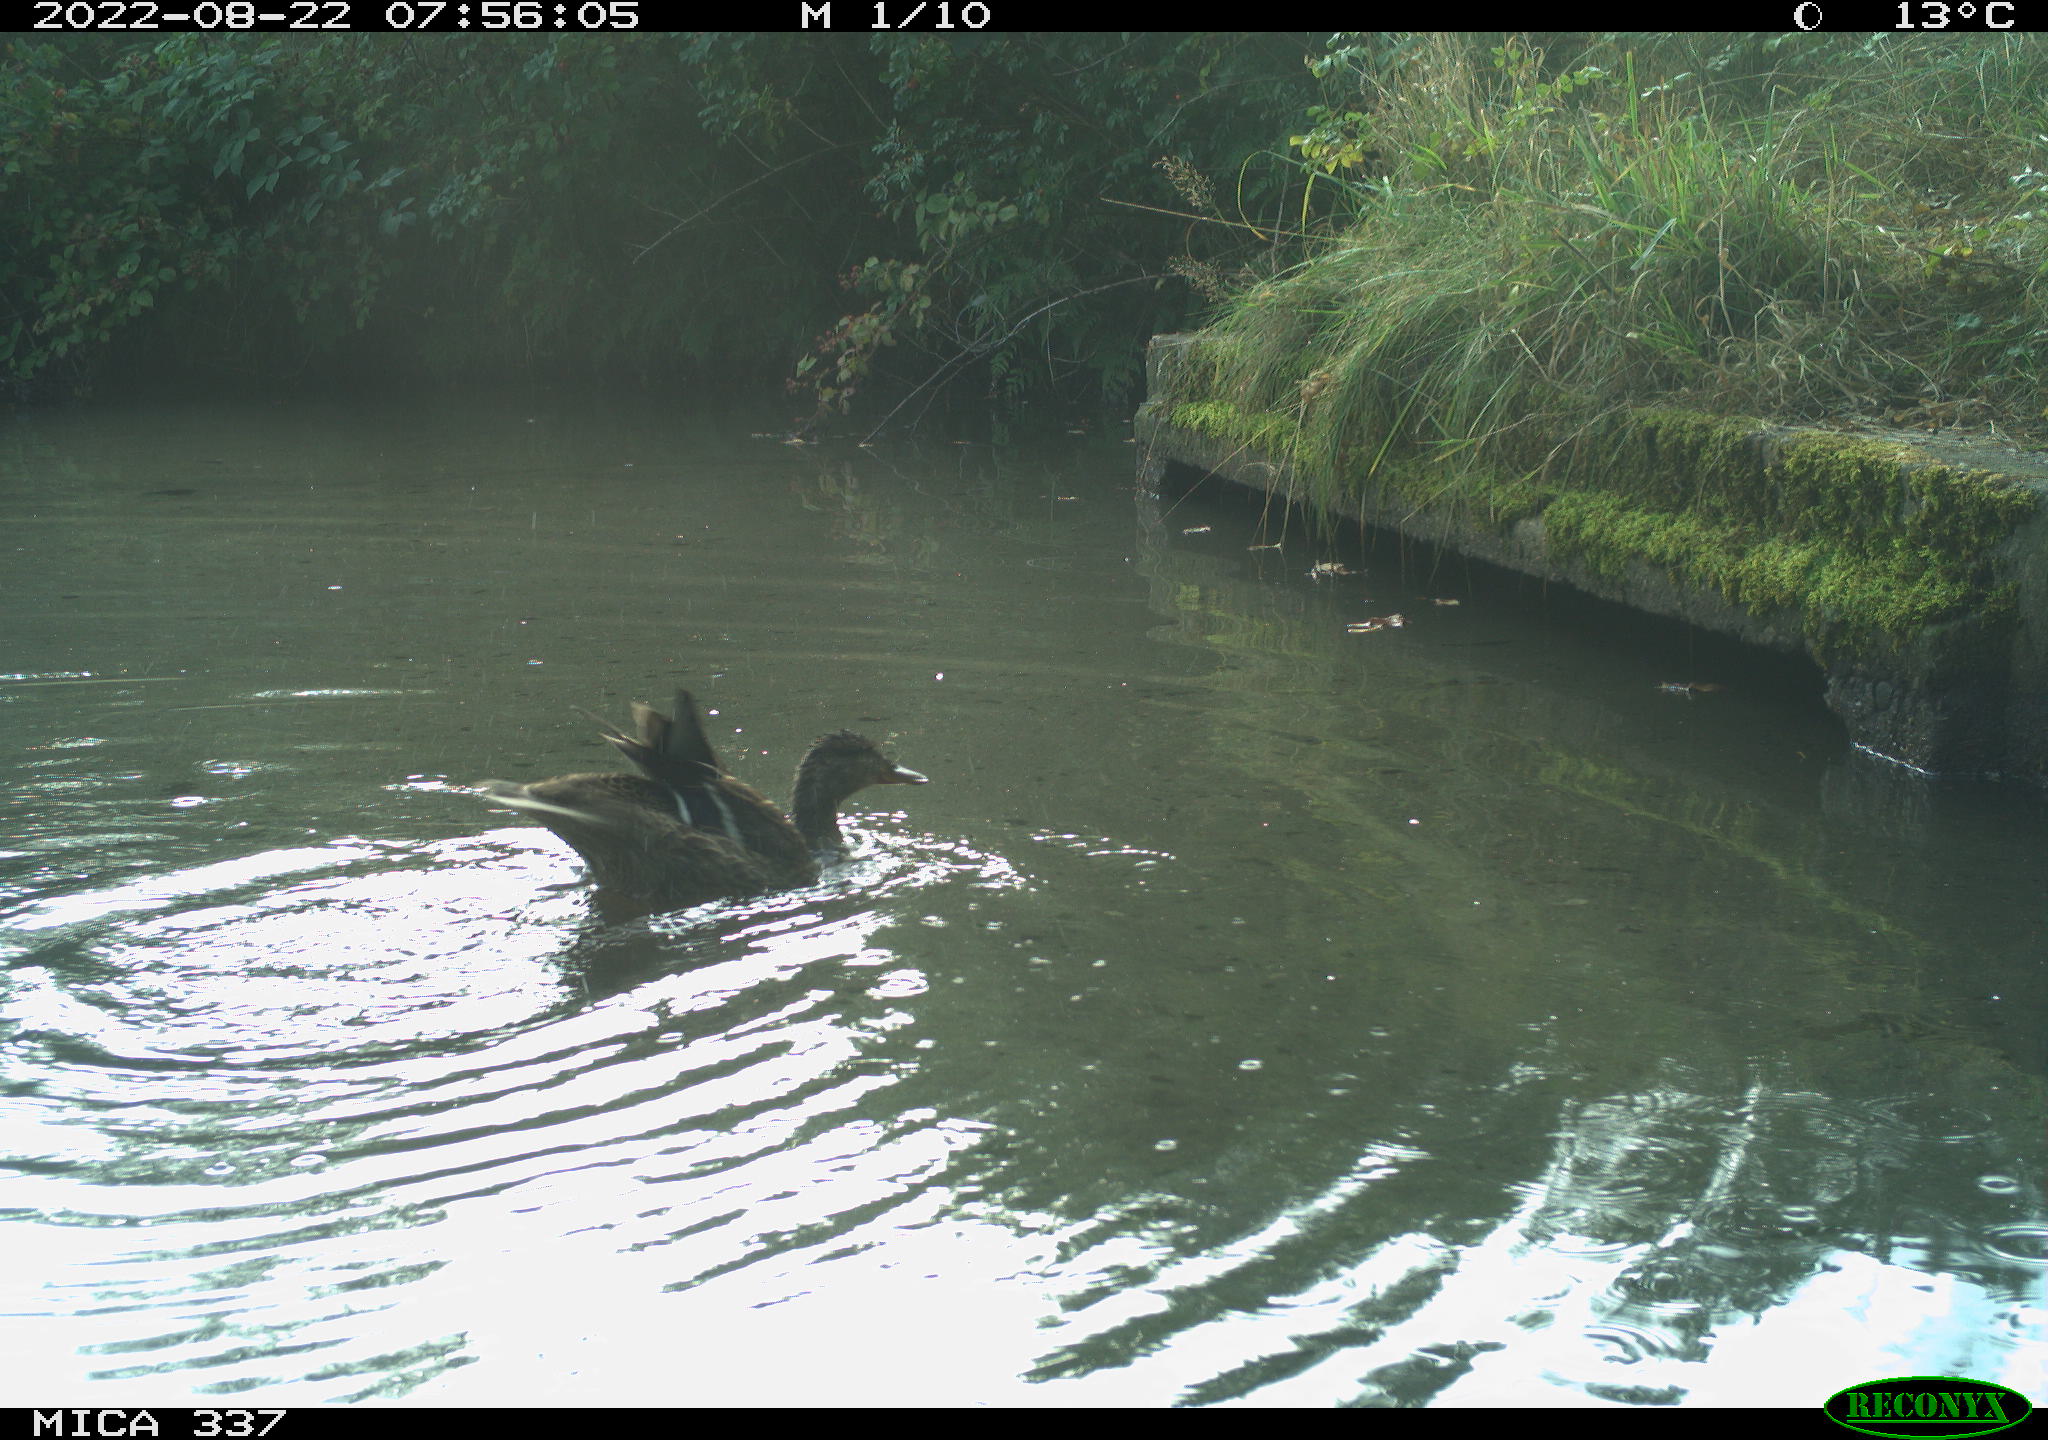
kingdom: Animalia
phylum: Chordata
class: Aves
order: Anseriformes
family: Anatidae
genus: Anas
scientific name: Anas platyrhynchos
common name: Mallard
